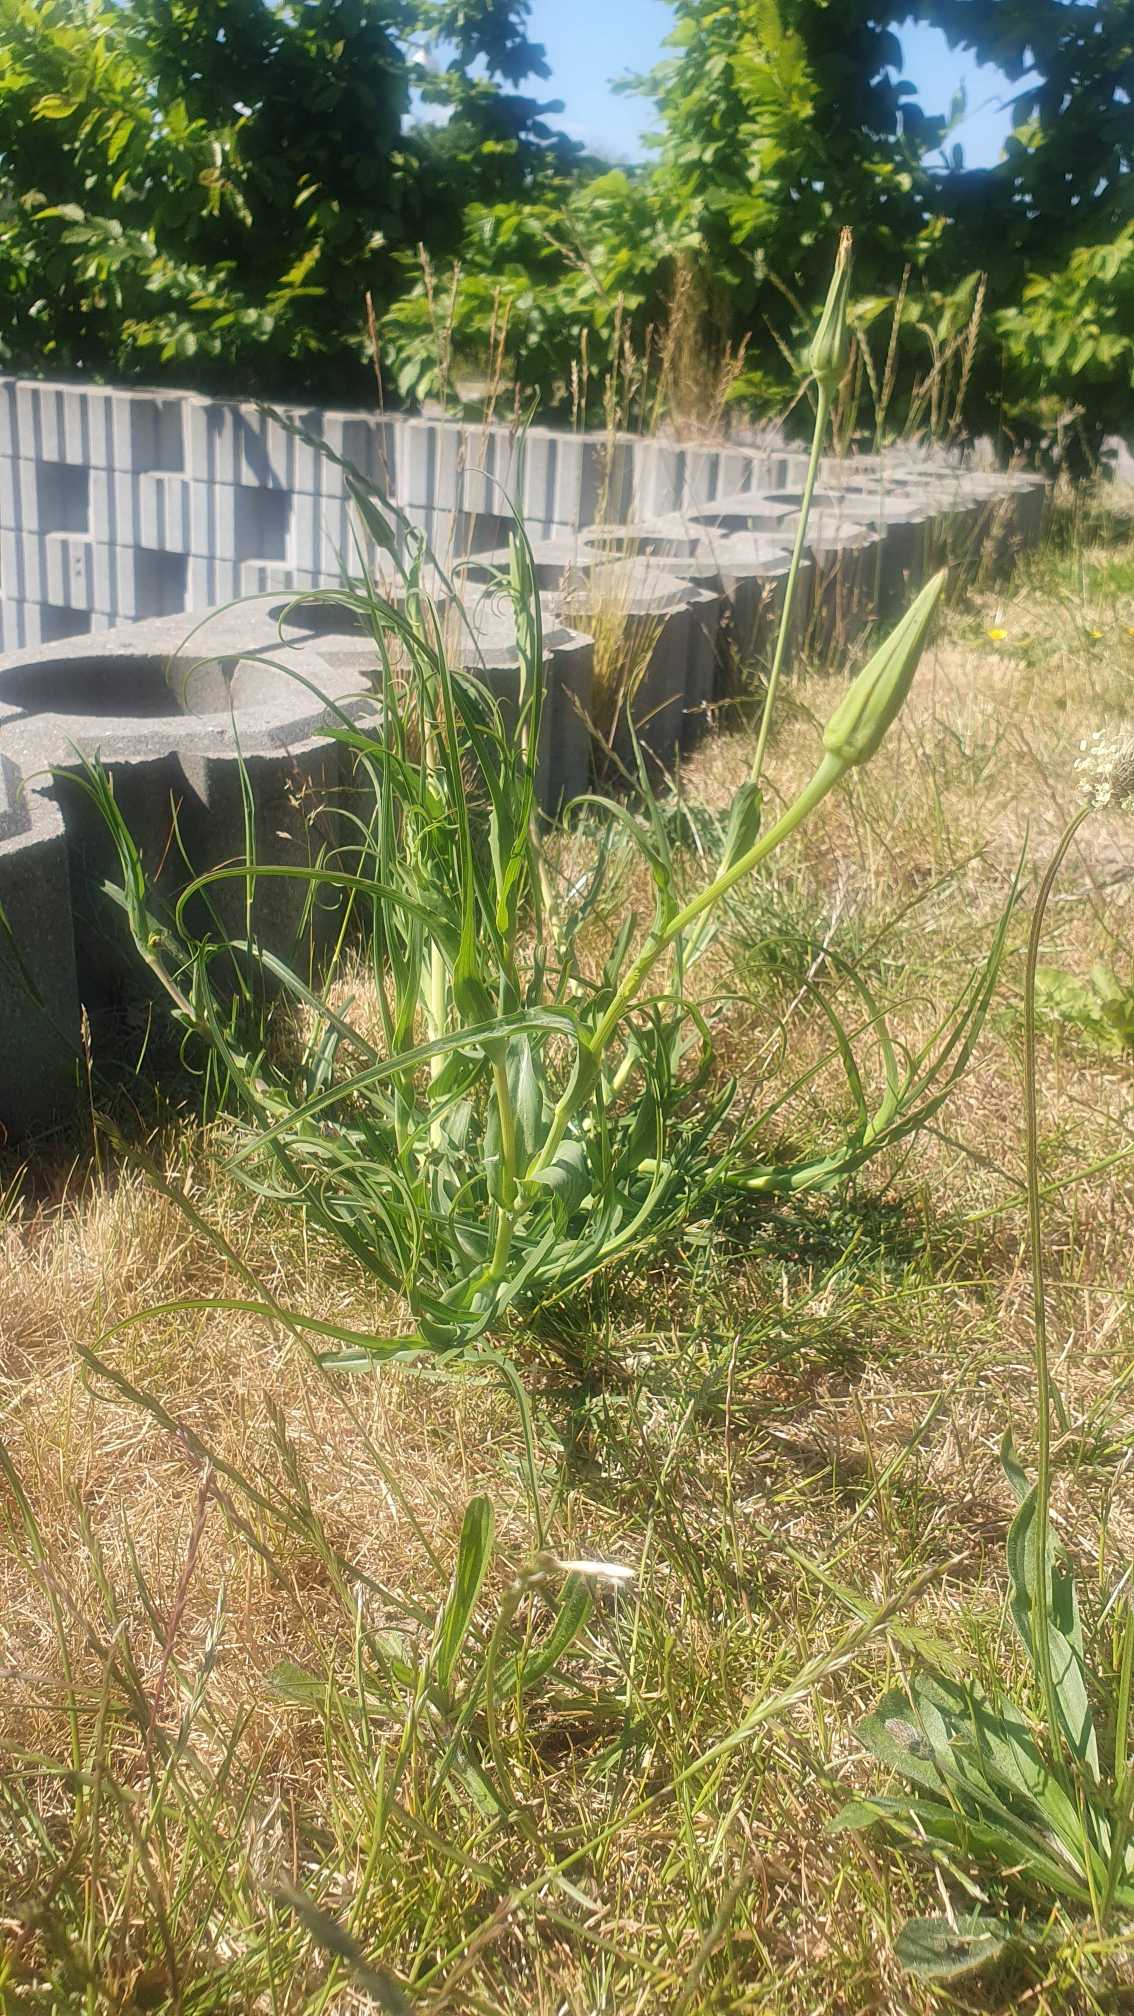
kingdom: Plantae
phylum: Tracheophyta
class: Magnoliopsida
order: Asterales
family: Asteraceae
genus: Tragopogon
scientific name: Tragopogon pratensis
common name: Gedeskæg
